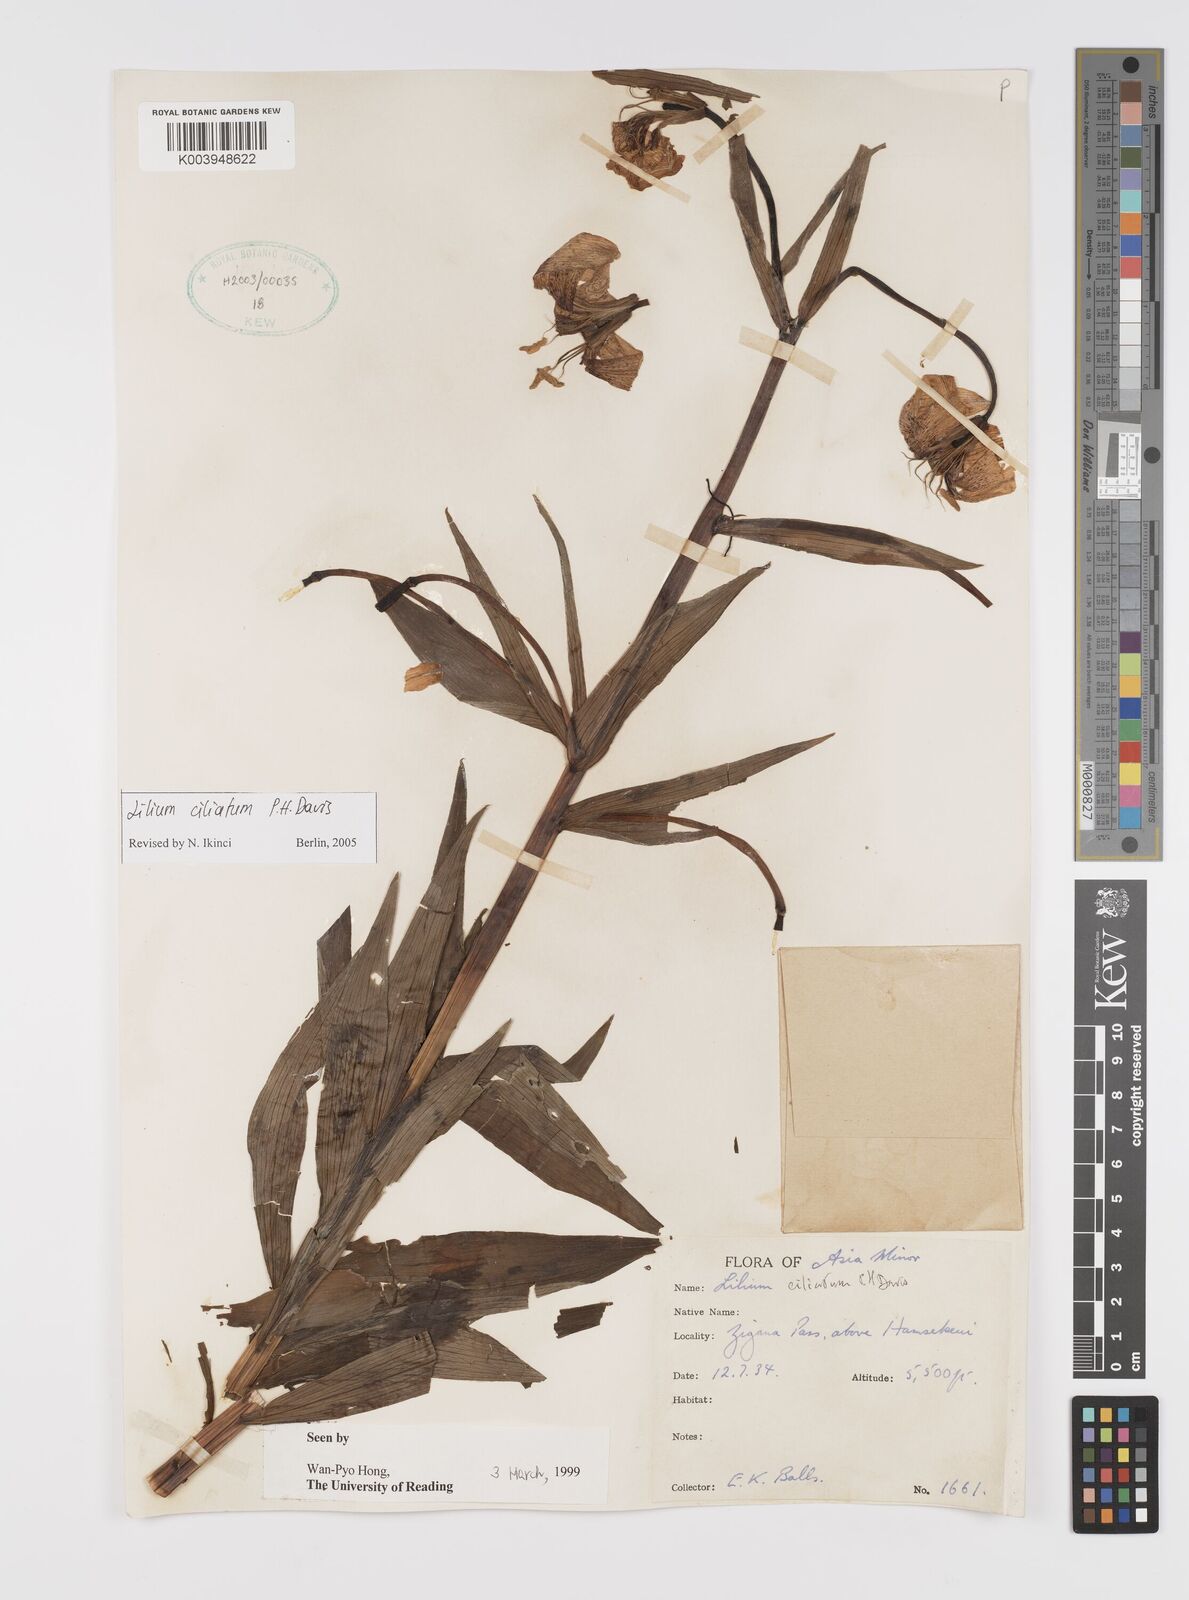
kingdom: Plantae
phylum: Tracheophyta
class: Liliopsida
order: Liliales
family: Liliaceae
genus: Lilium
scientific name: Lilium ciliatum
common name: Ciliate lily
